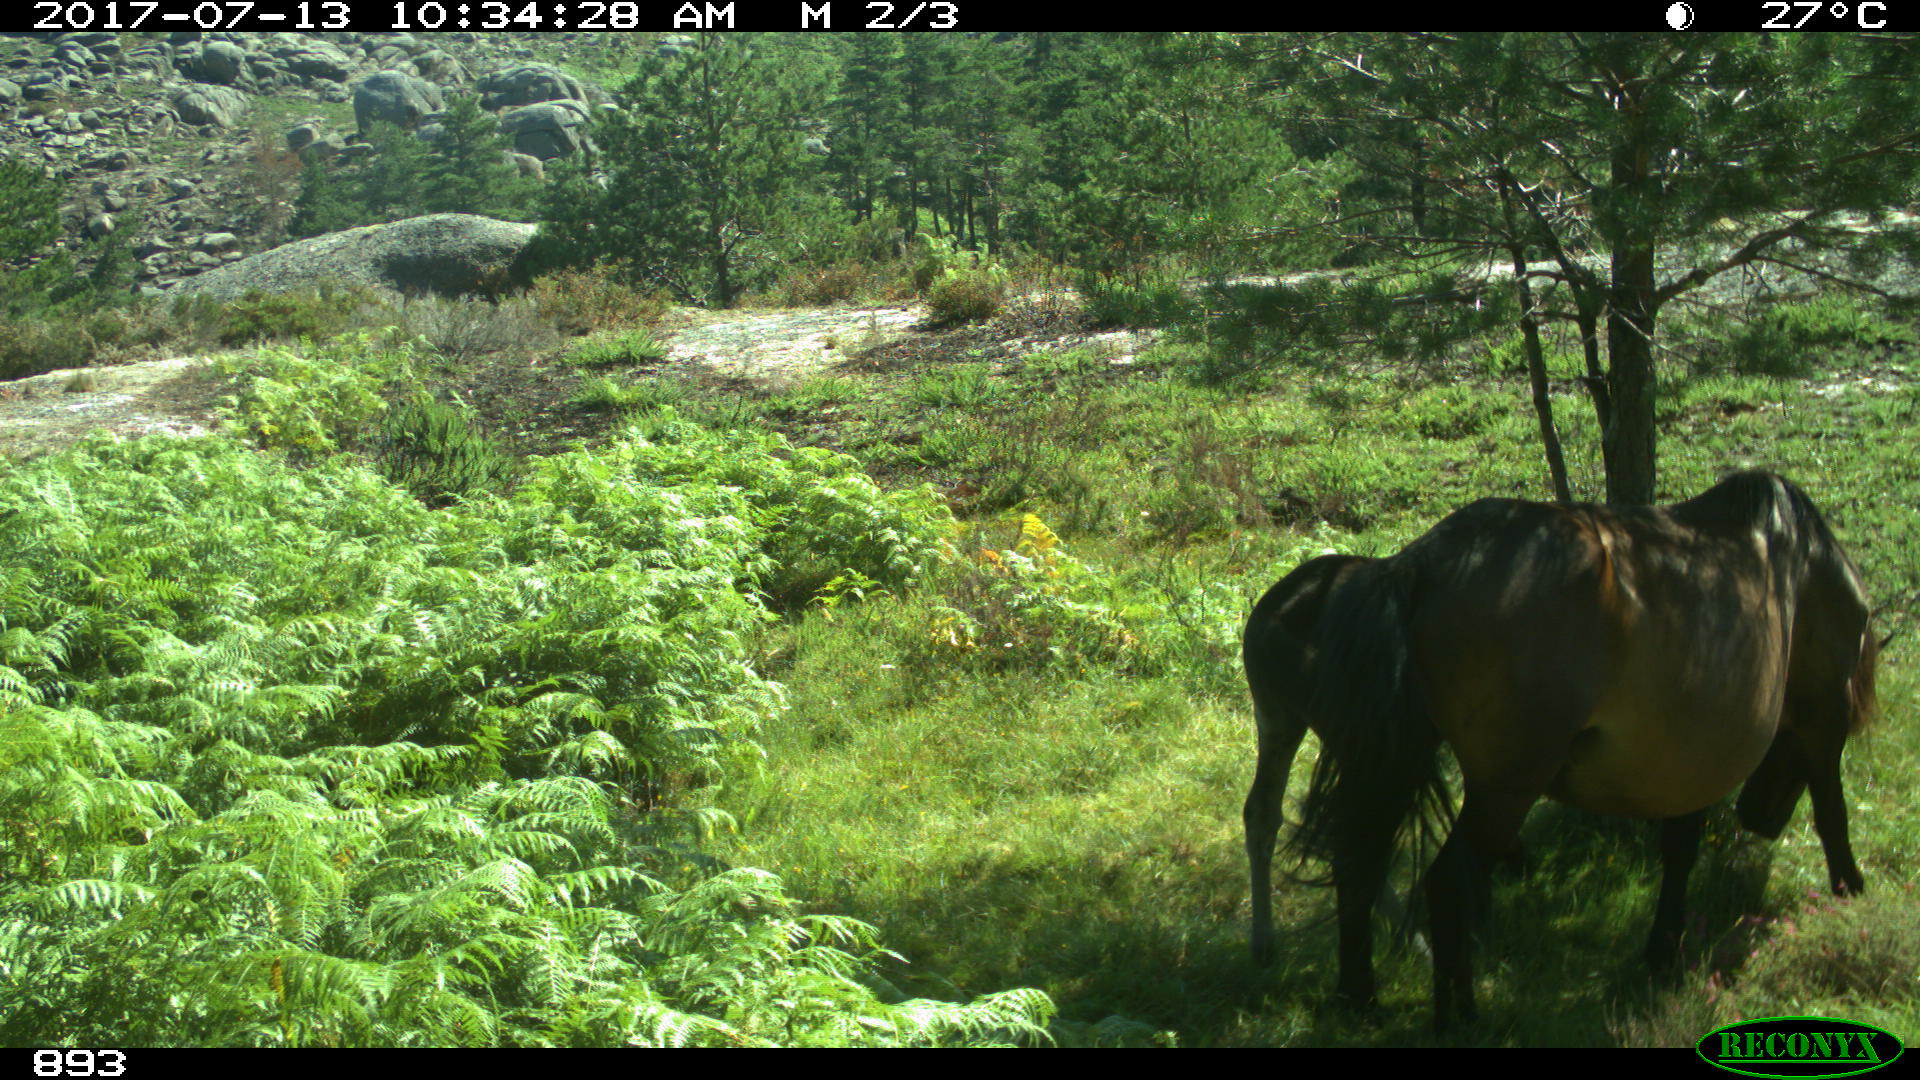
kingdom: Animalia
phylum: Chordata
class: Mammalia
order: Perissodactyla
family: Equidae
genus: Equus
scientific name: Equus caballus
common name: Horse
